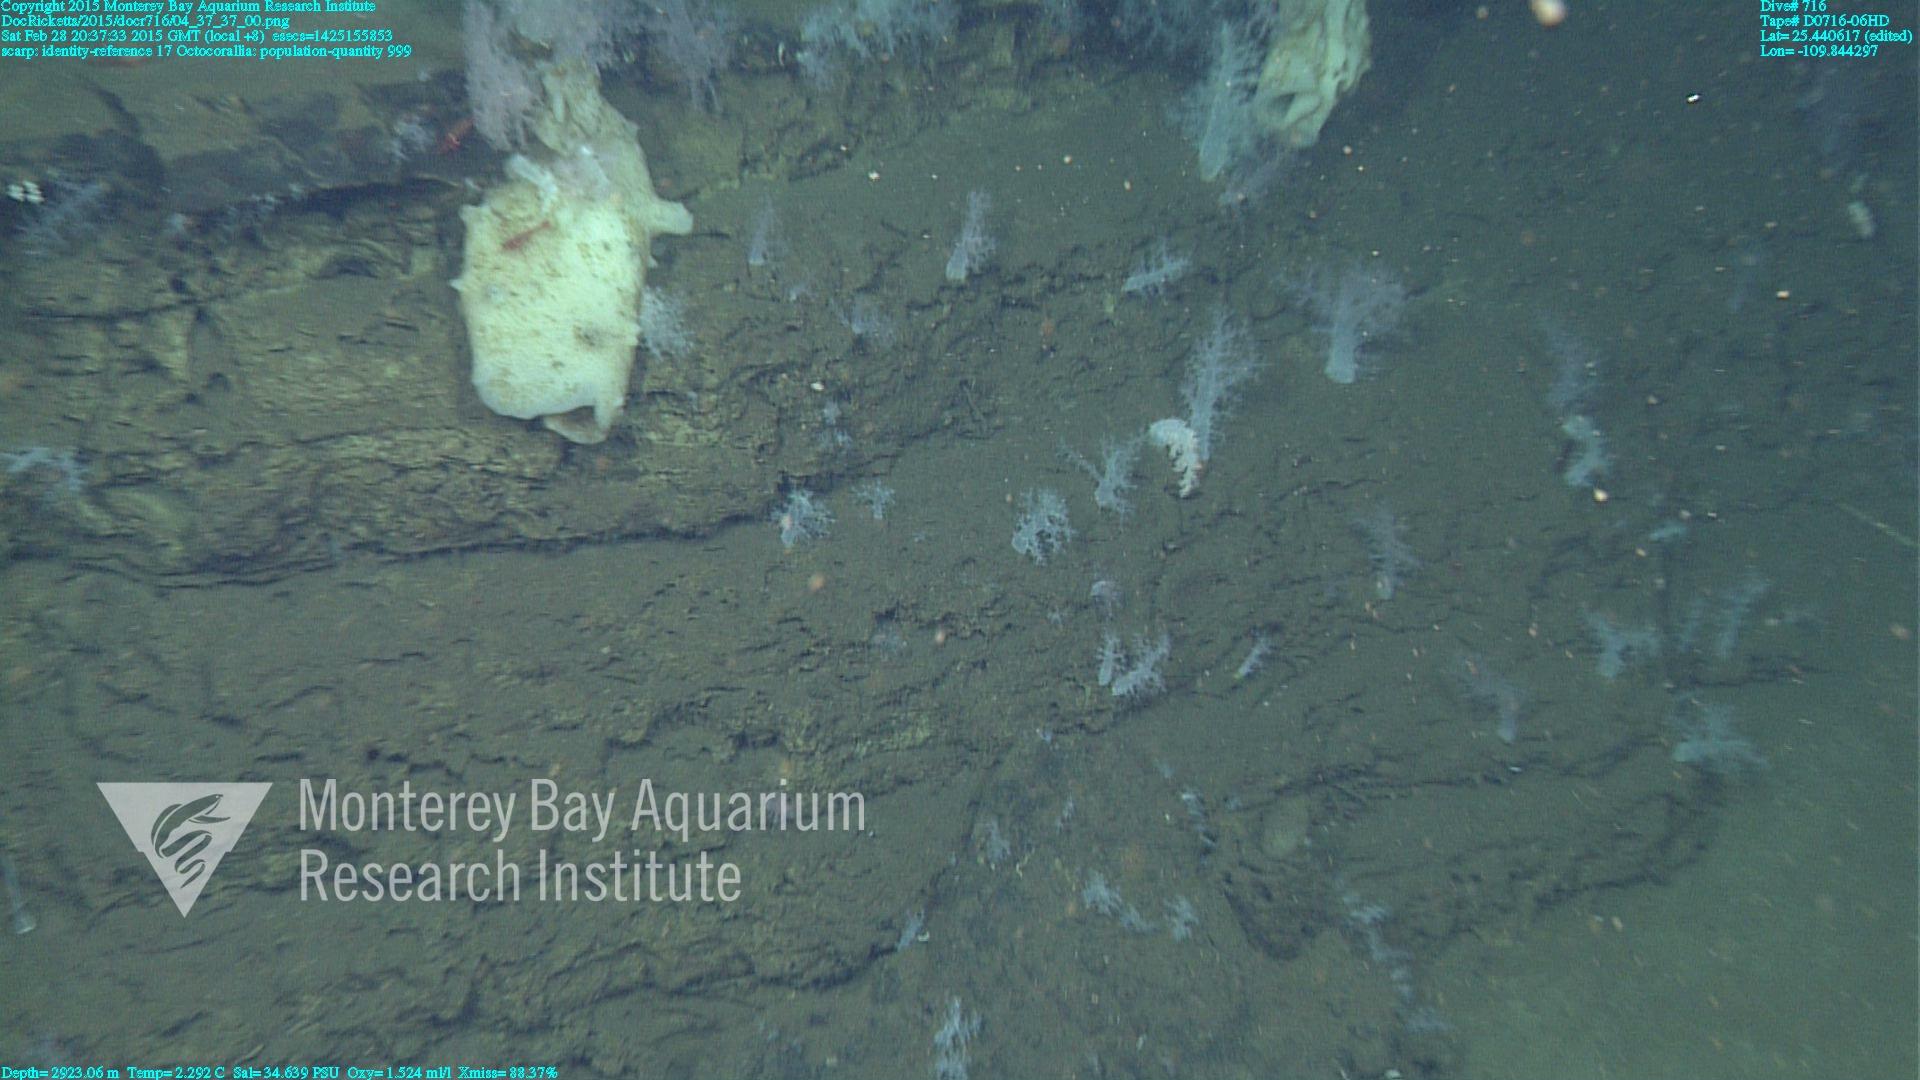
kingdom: Animalia
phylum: Cnidaria
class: Anthozoa
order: Malacalcyonacea
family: Alcyoniidae
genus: Gersemia
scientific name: Gersemia juliepackardae
